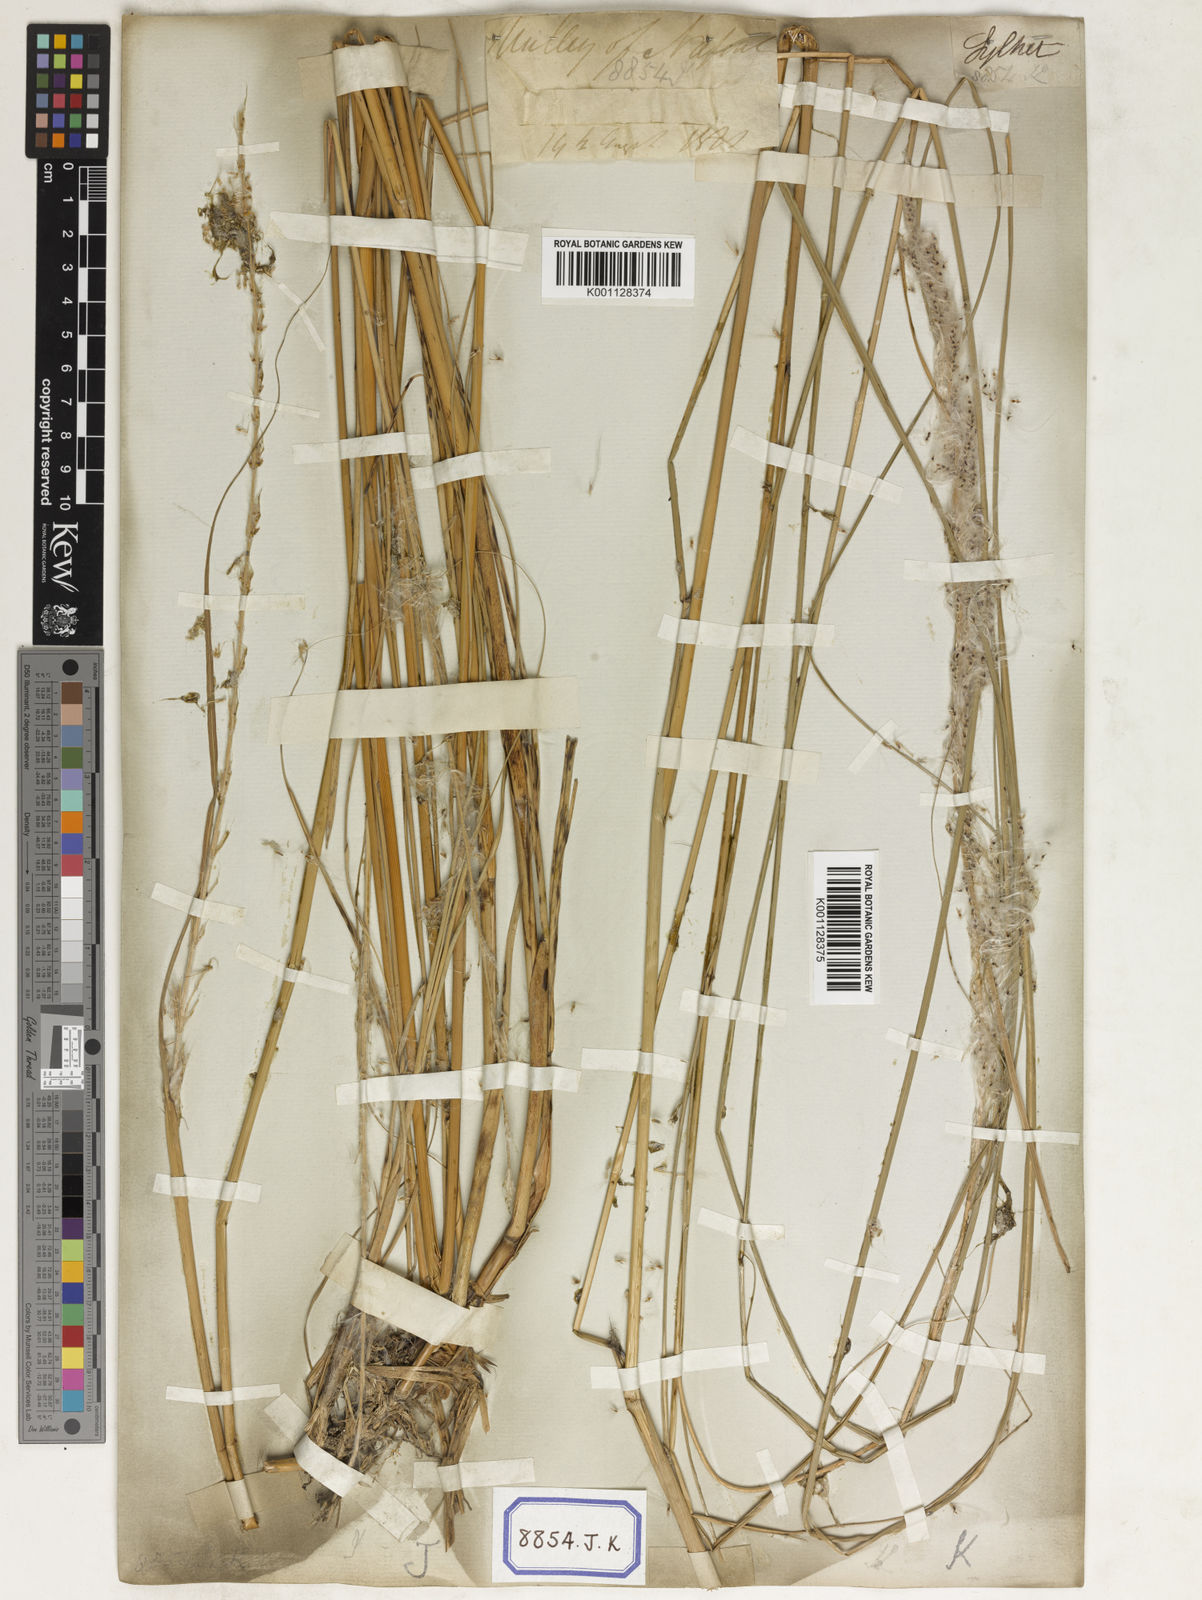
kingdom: Plantae
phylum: Tracheophyta
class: Liliopsida
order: Poales
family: Poaceae
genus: Saccharum
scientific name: Saccharum
